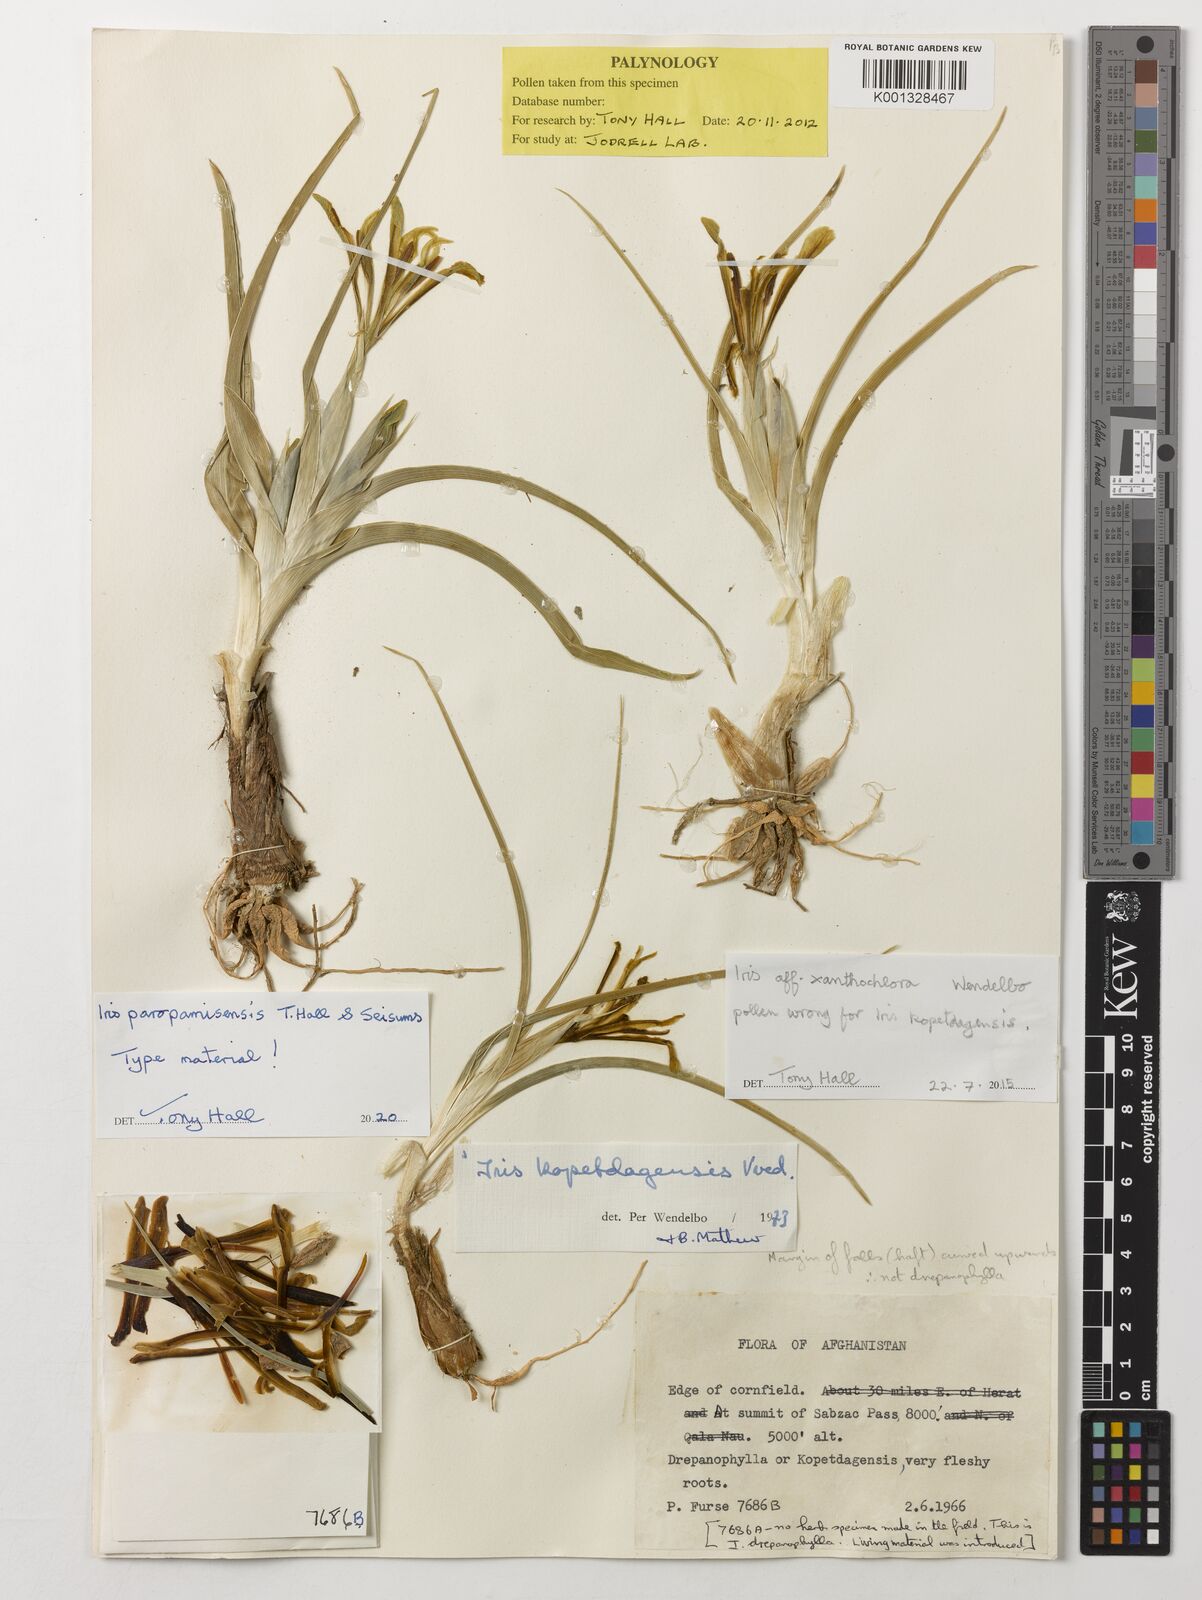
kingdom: Plantae
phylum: Tracheophyta
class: Liliopsida
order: Asparagales
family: Iridaceae
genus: Iris
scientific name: Iris
